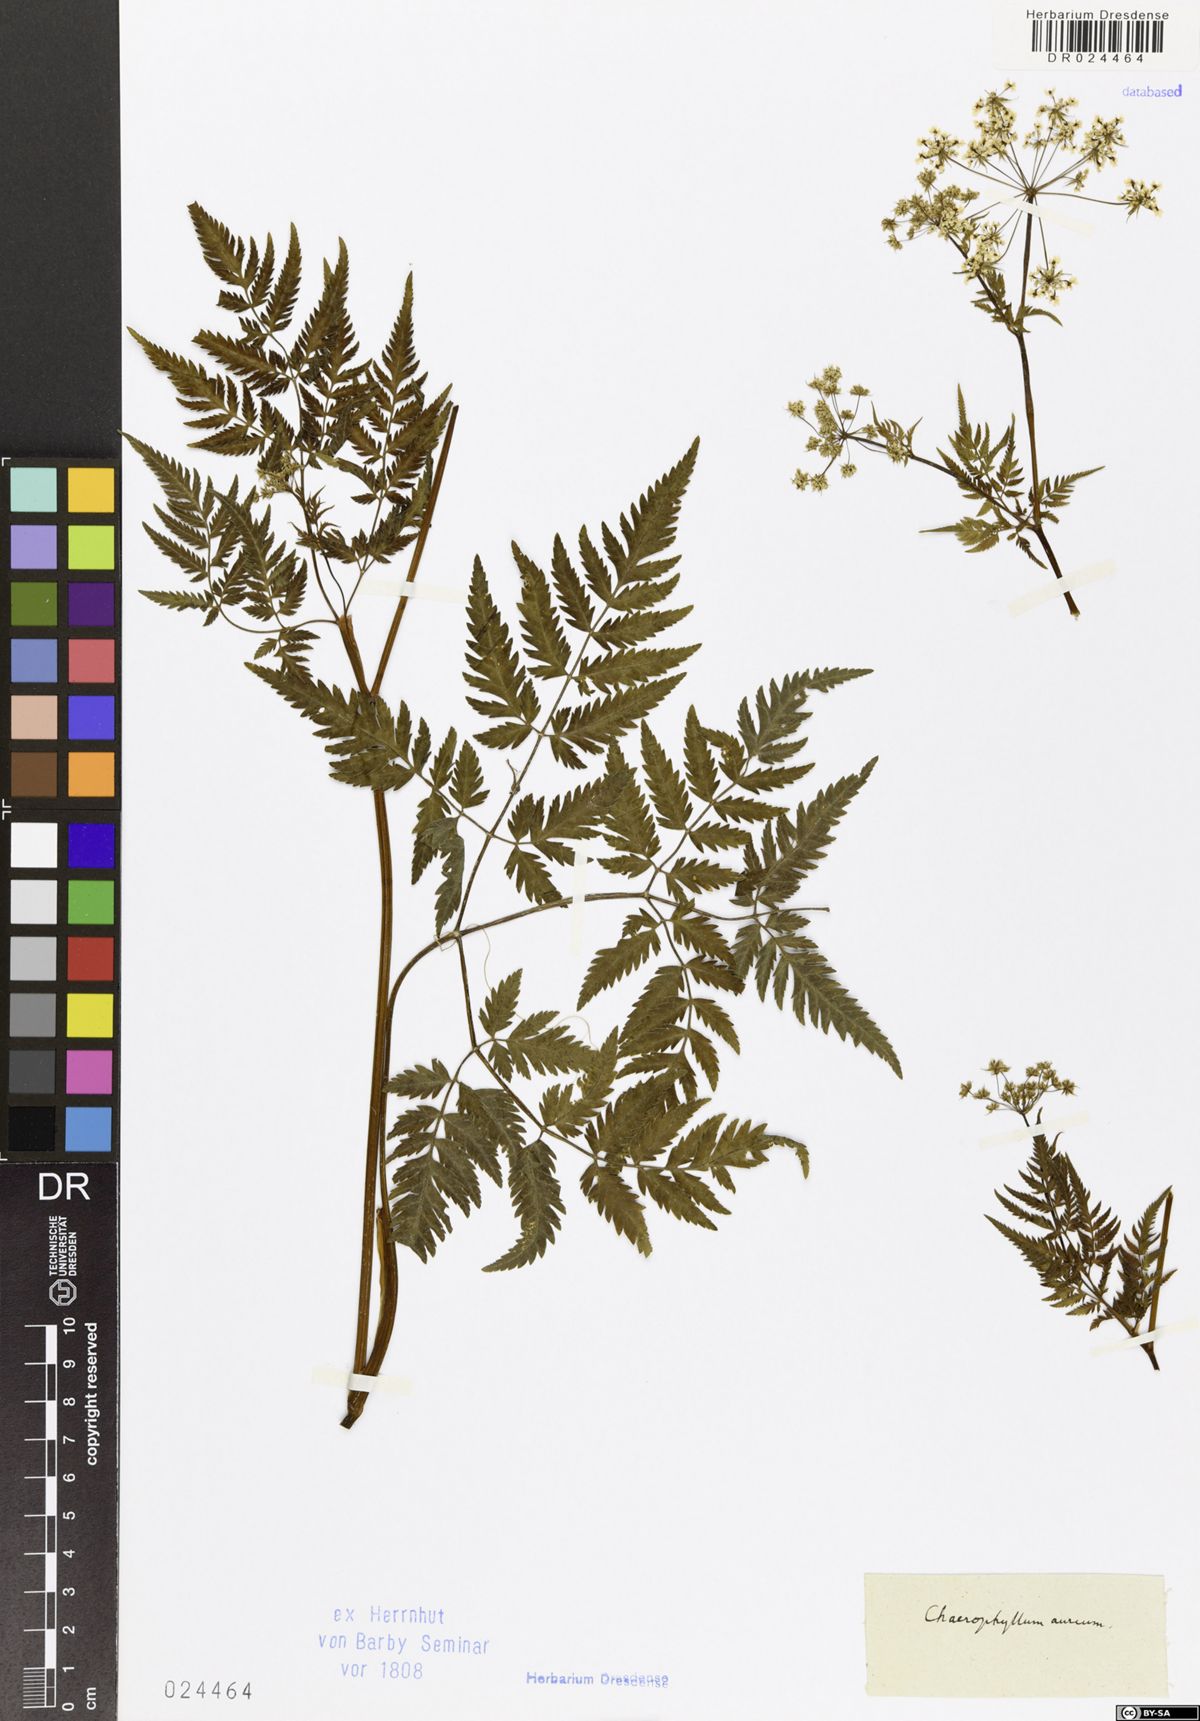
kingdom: Plantae
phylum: Tracheophyta
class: Magnoliopsida
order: Apiales
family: Apiaceae
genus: Chaerophyllum
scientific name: Chaerophyllum aureum
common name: Golden chervil
